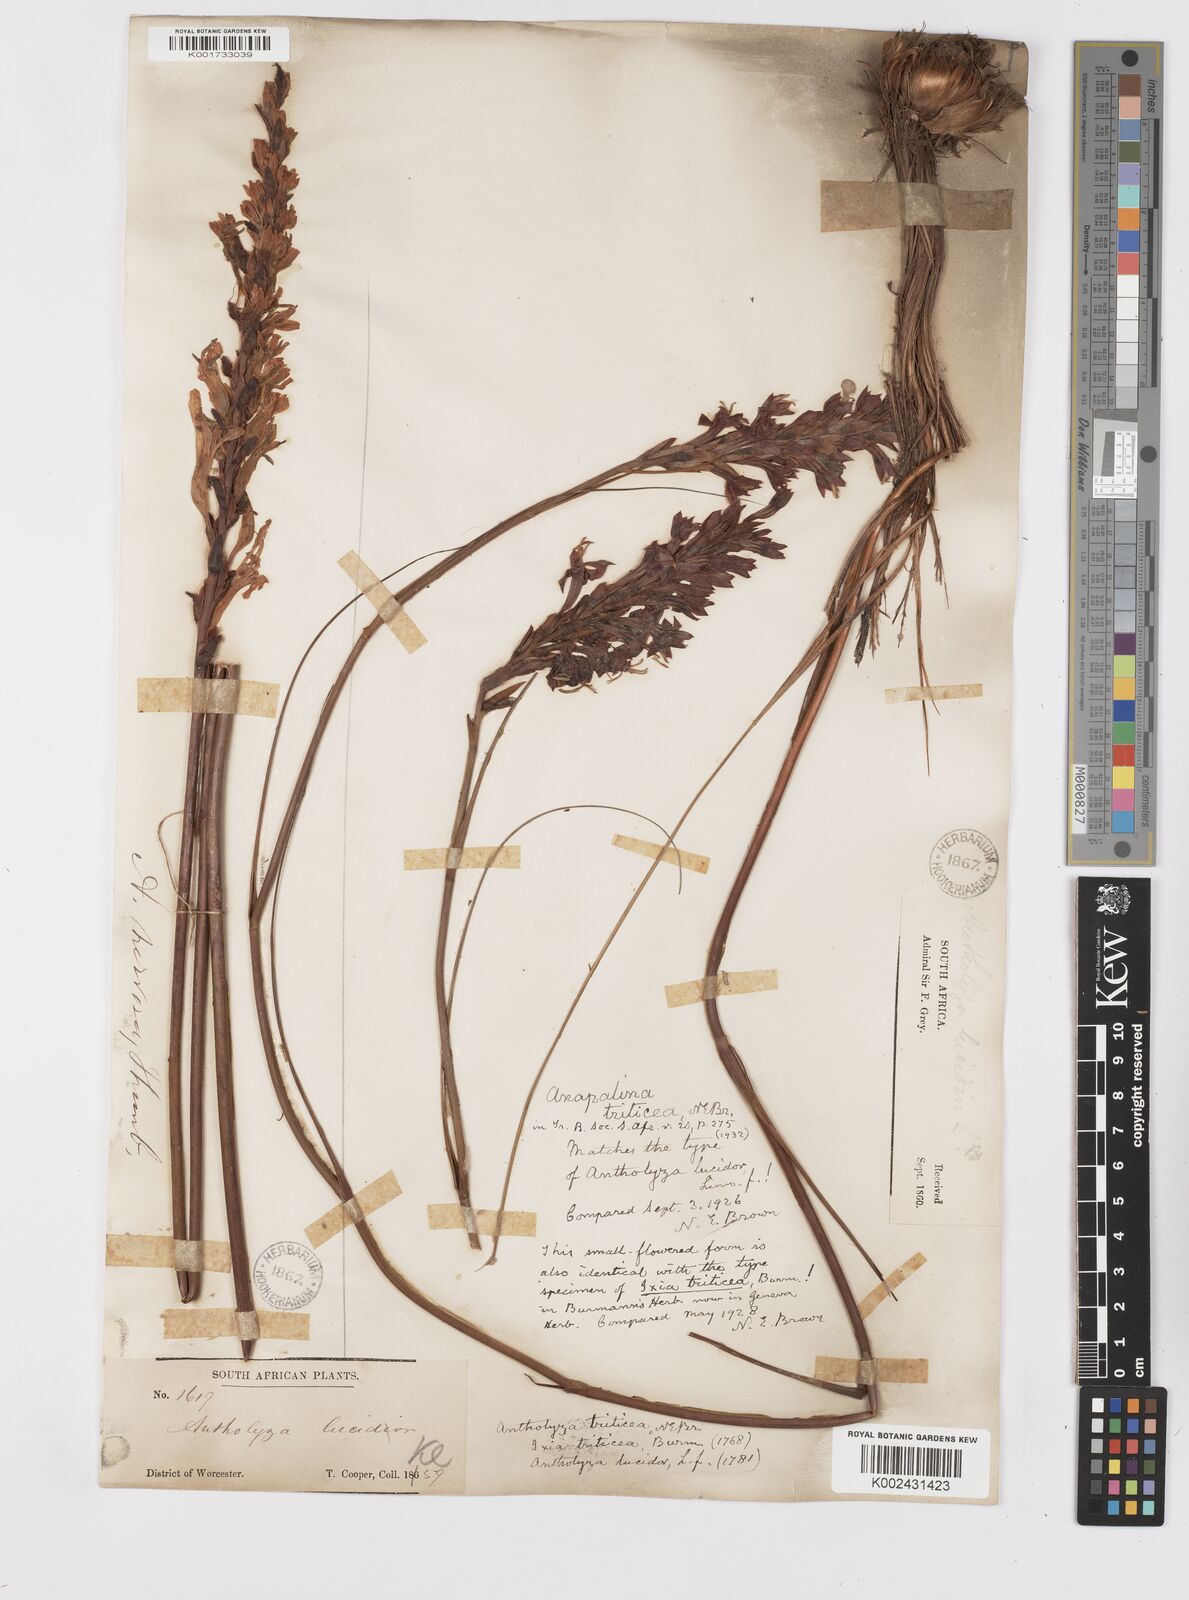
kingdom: Plantae
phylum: Tracheophyta
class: Liliopsida
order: Asparagales
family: Iridaceae
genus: Tritoniopsis
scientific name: Tritoniopsis triticea
